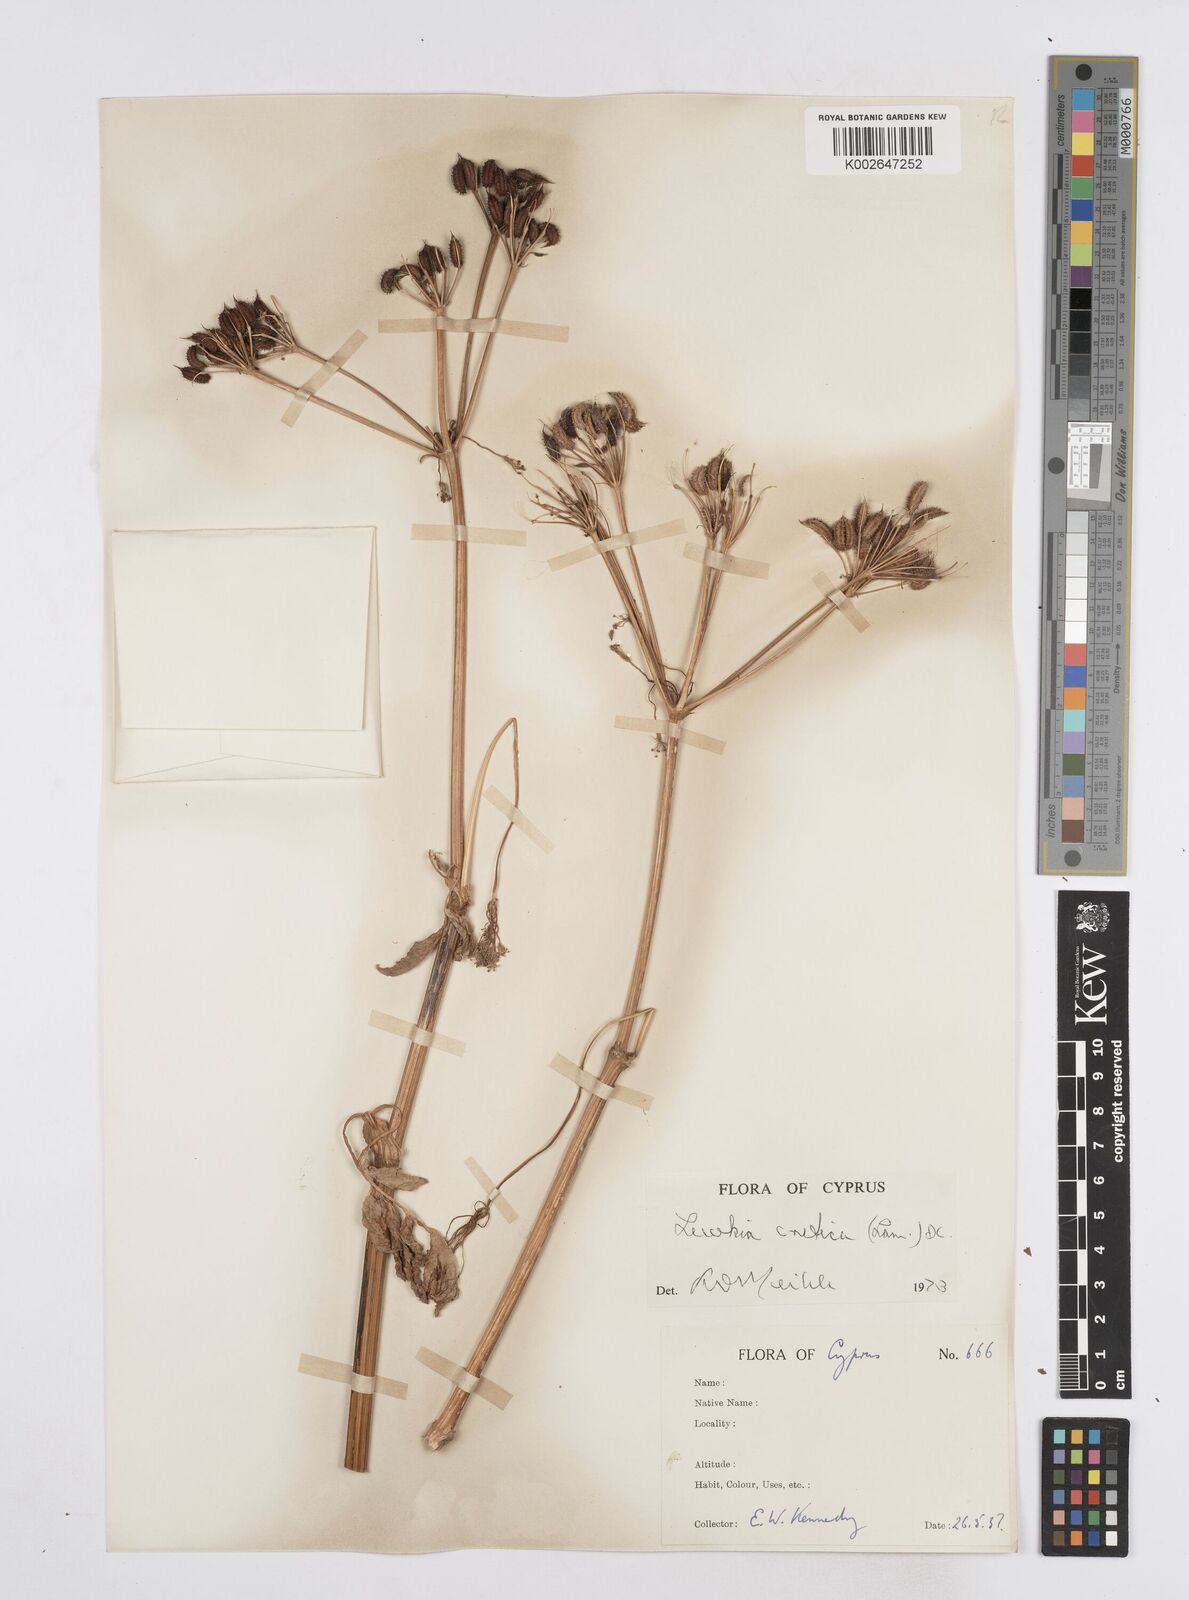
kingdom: Plantae
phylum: Tracheophyta
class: Magnoliopsida
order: Apiales
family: Apiaceae
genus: Lecokia
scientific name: Lecokia cretica
